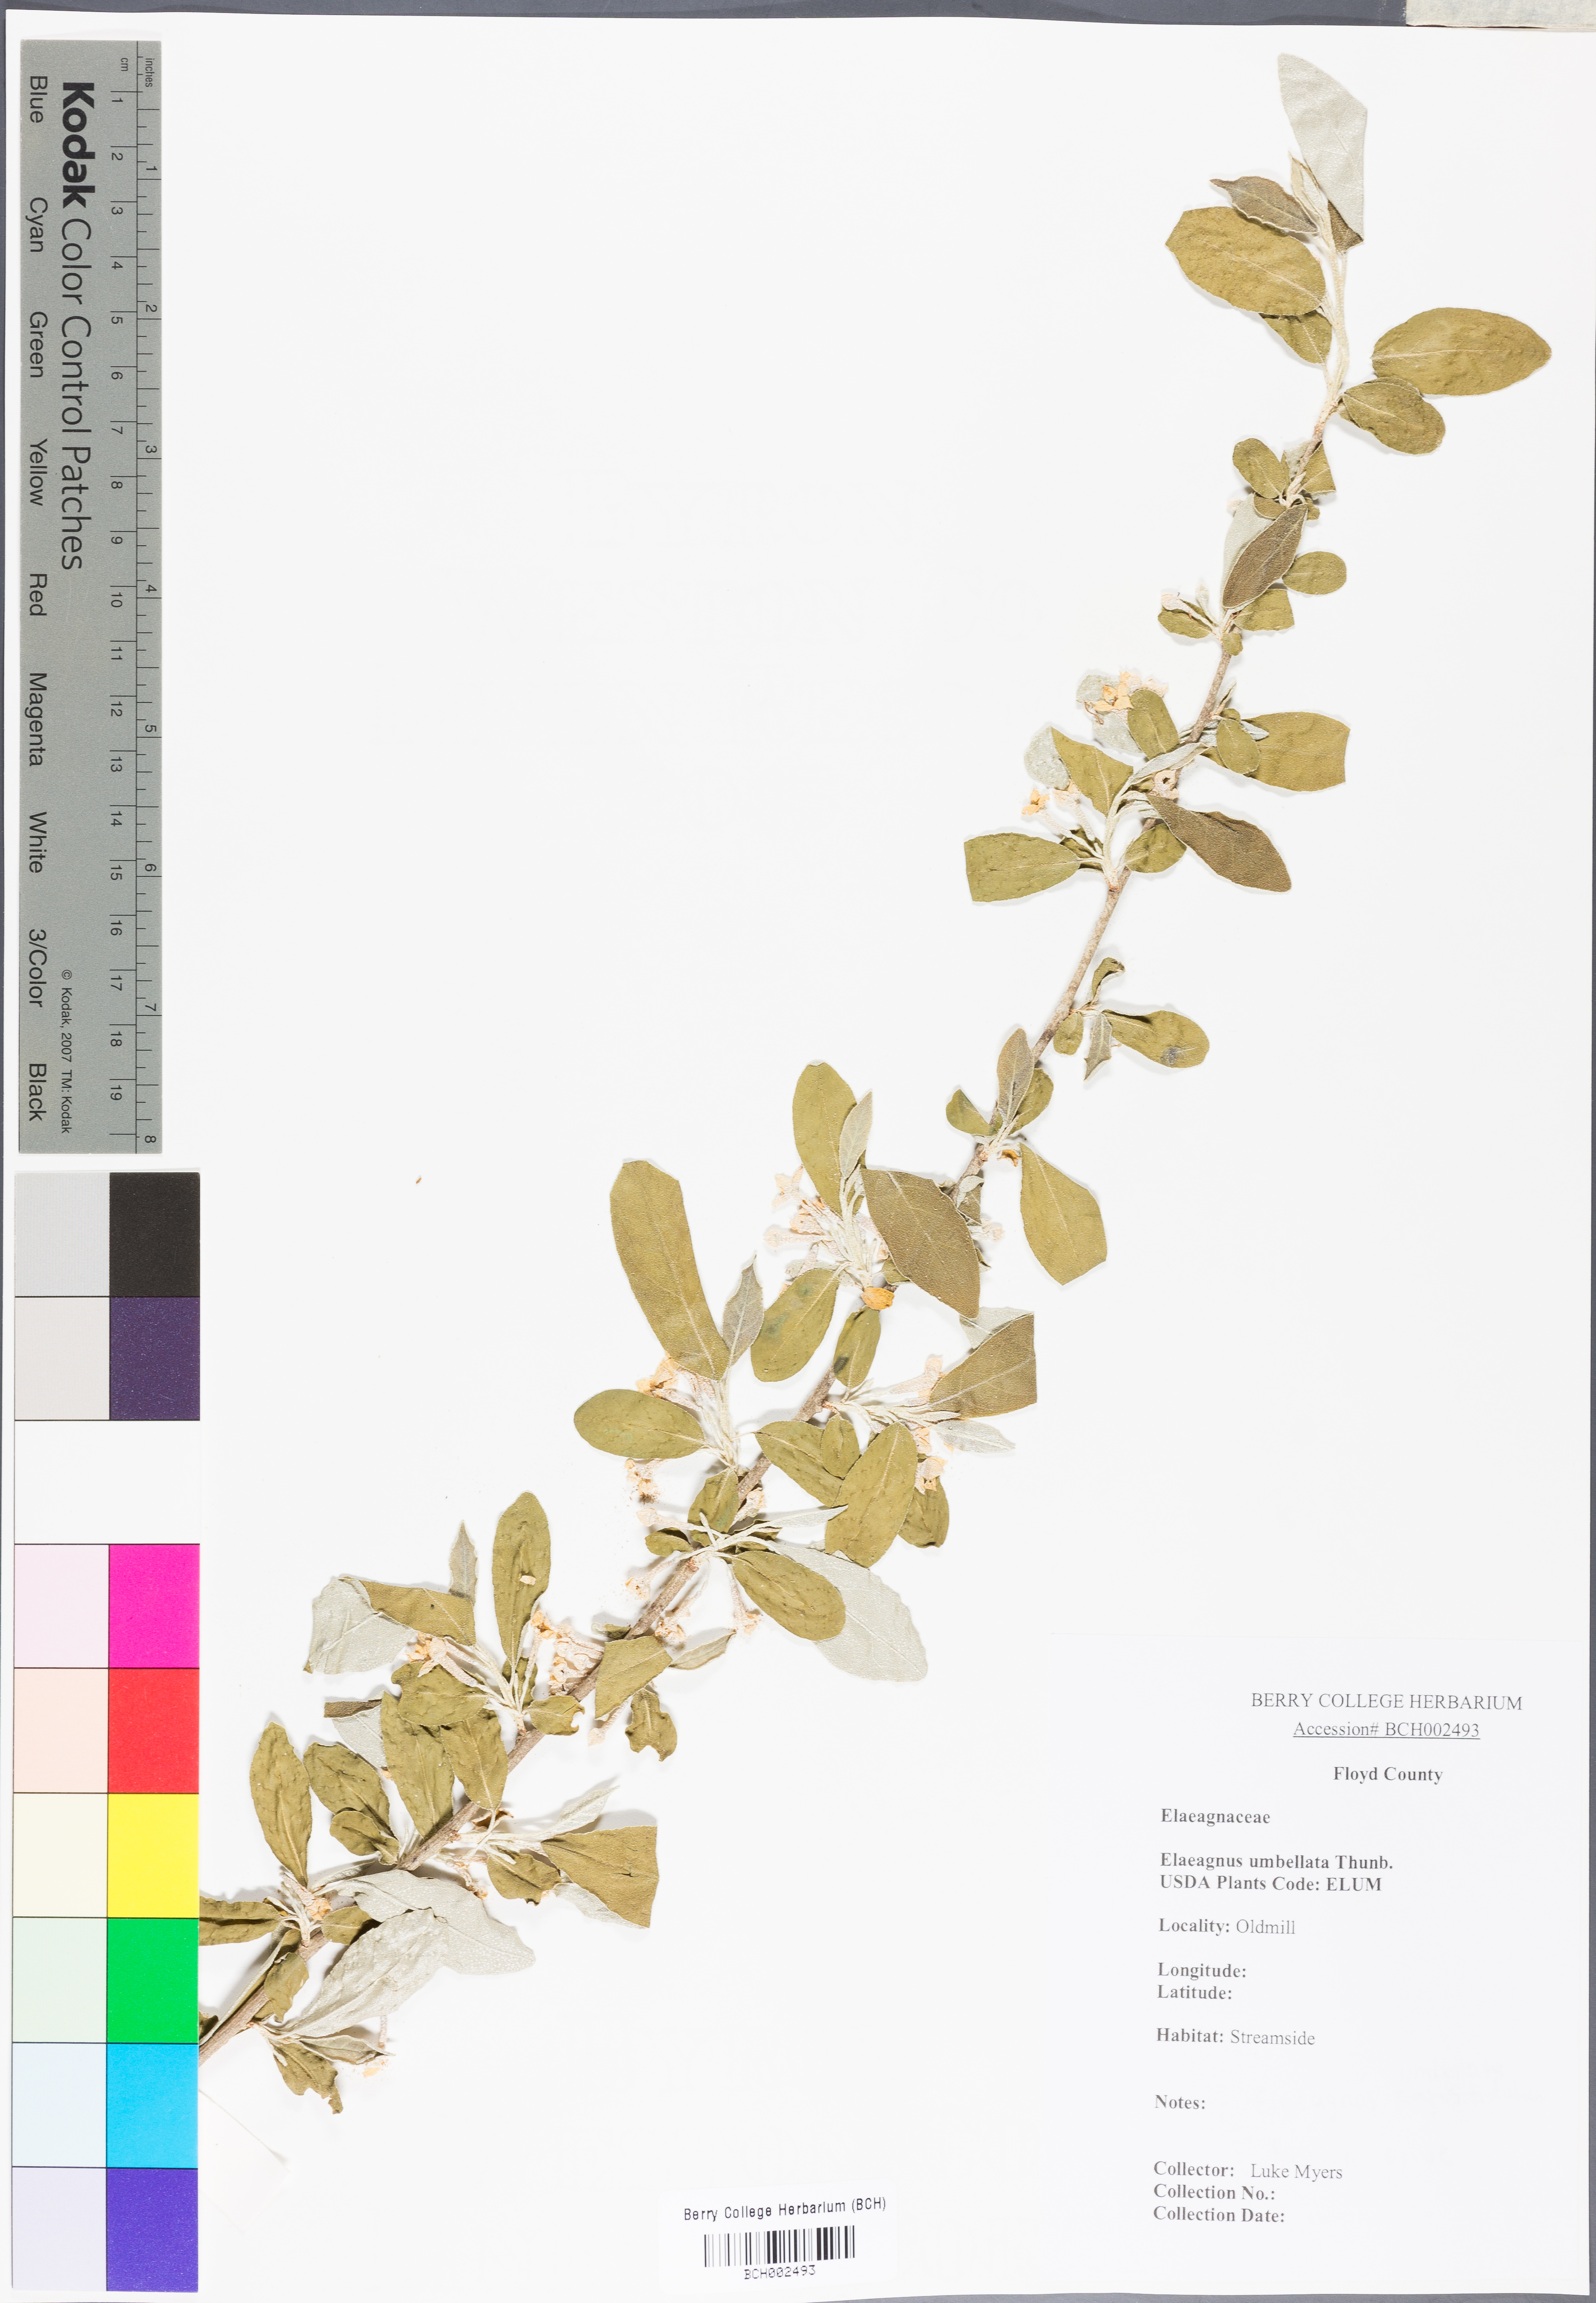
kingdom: Plantae
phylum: Tracheophyta
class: Magnoliopsida
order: Rosales
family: Elaeagnaceae
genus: Elaeagnus
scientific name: Elaeagnus umbellata
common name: Autumn olive
